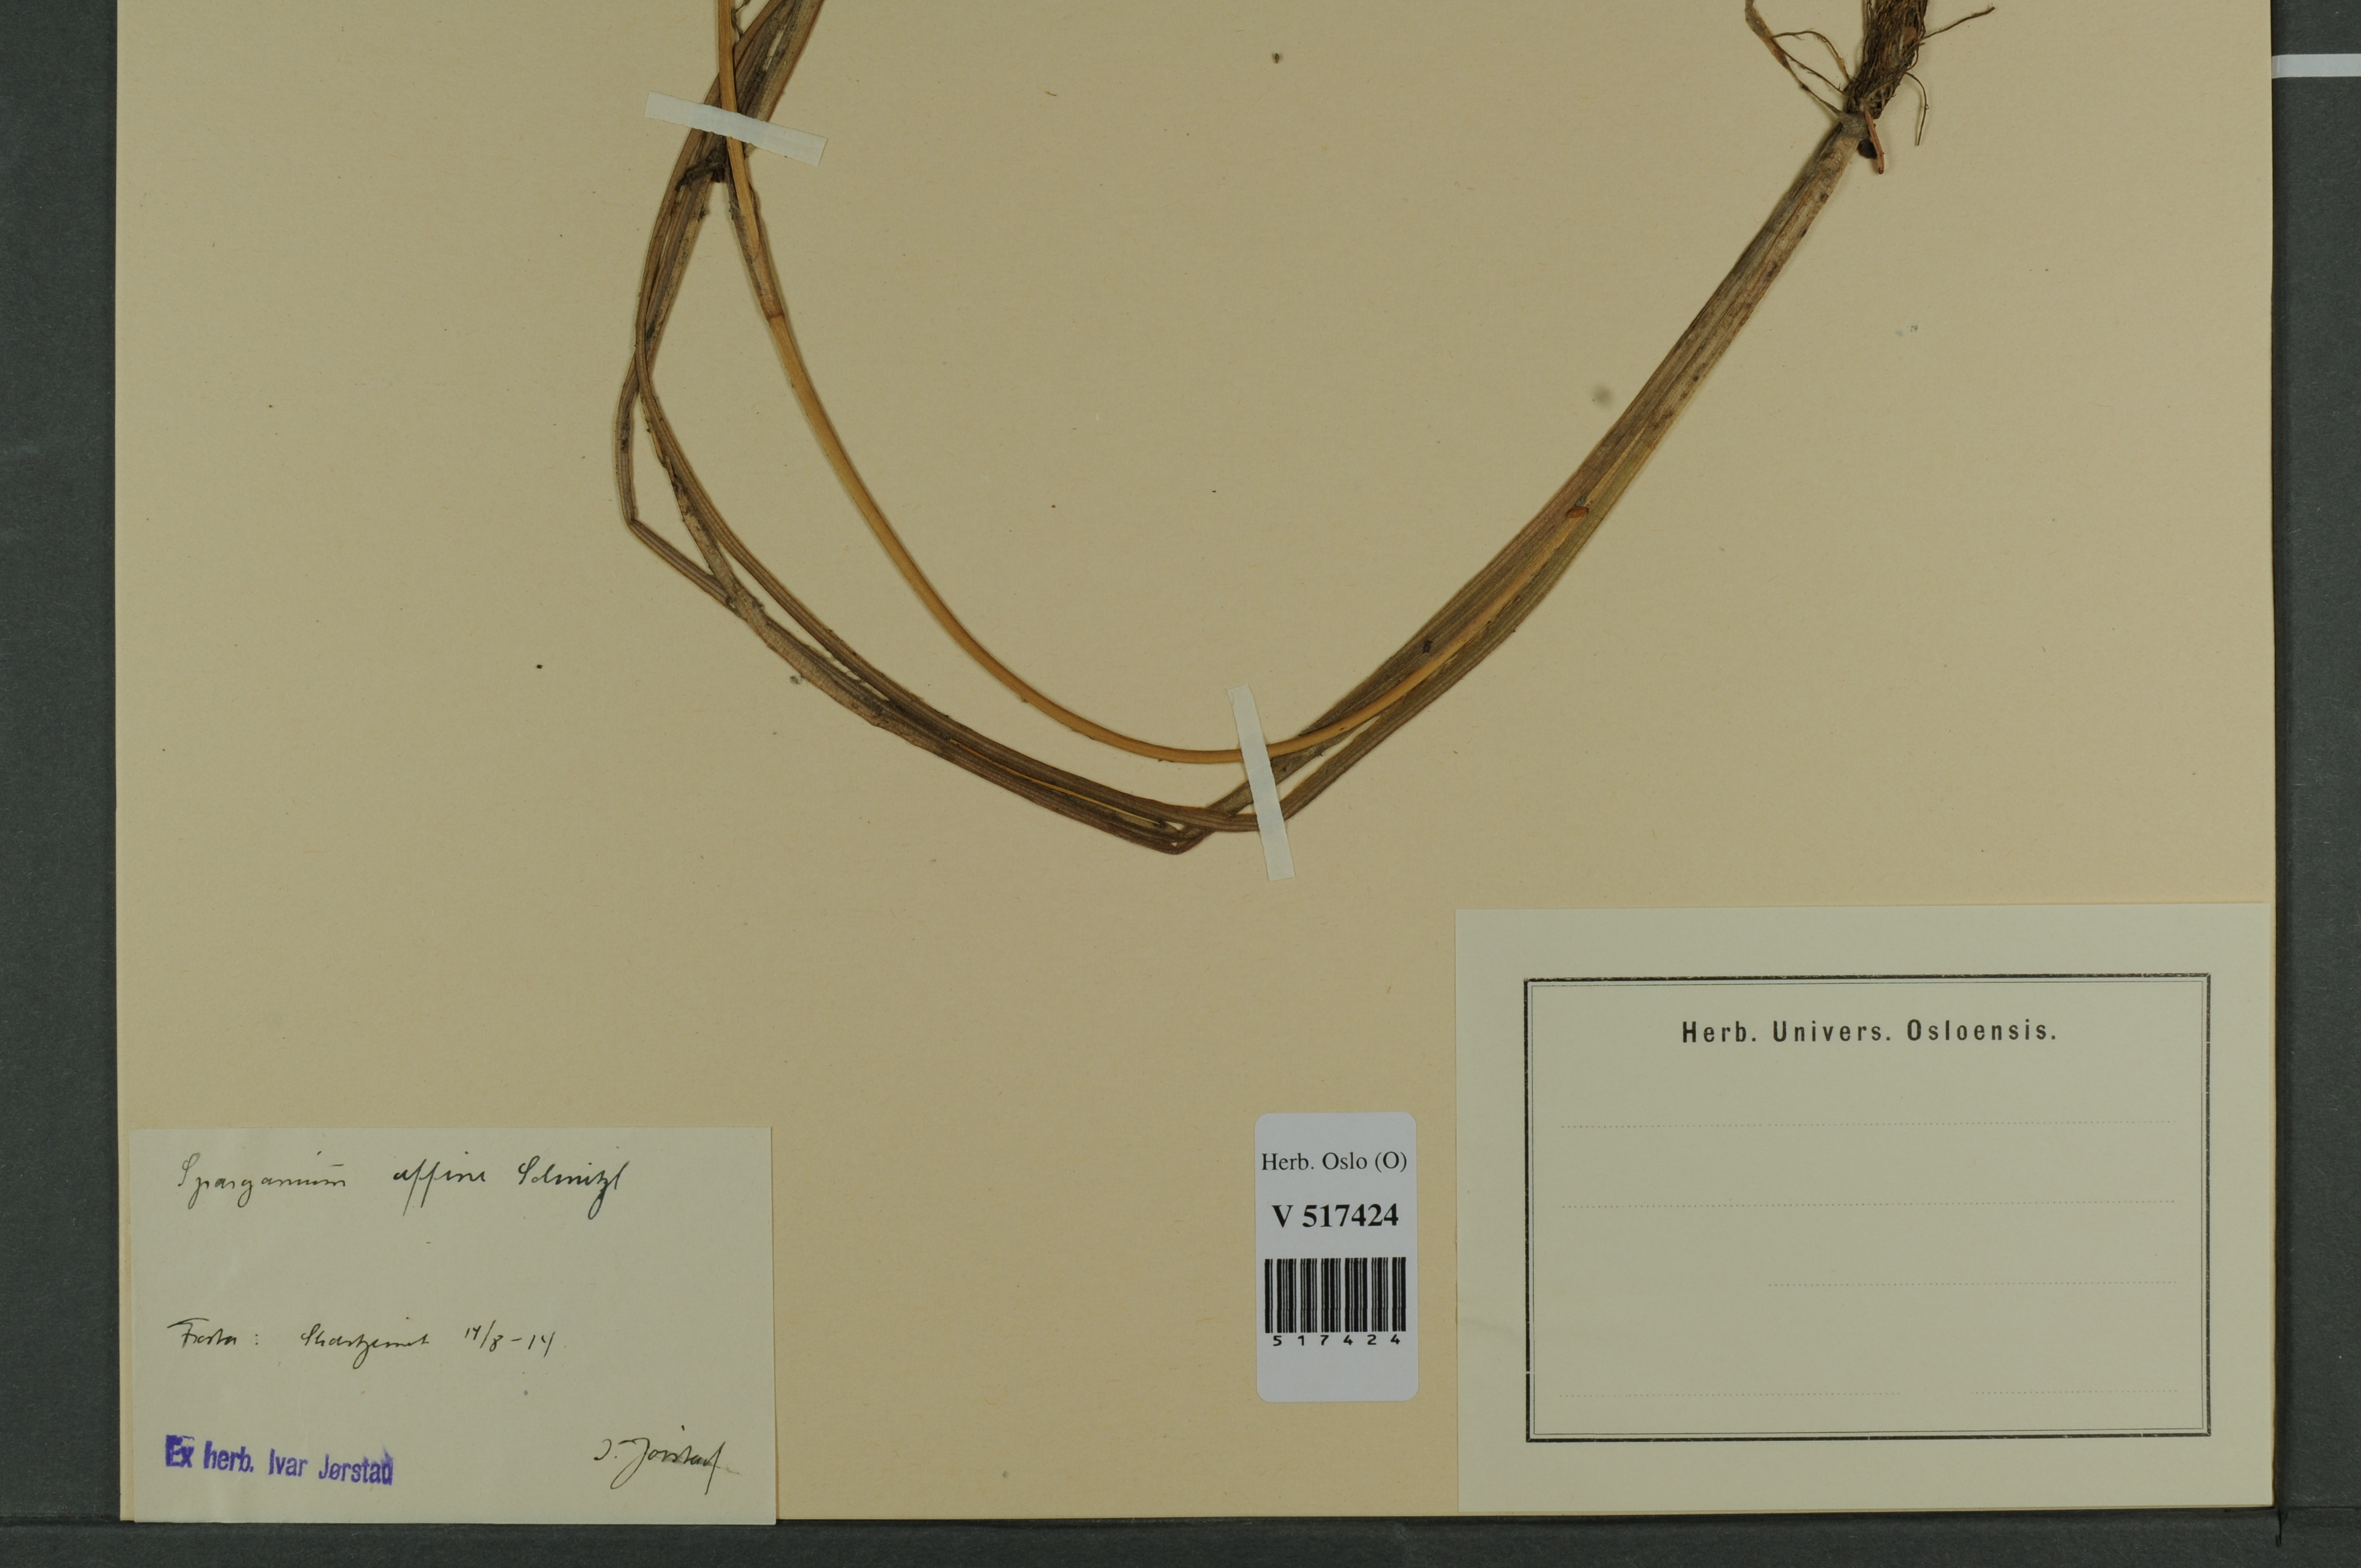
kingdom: Plantae
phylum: Tracheophyta
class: Liliopsida
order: Poales
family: Typhaceae
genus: Sparganium
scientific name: Sparganium angustifolium
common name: Floating bur-reed
